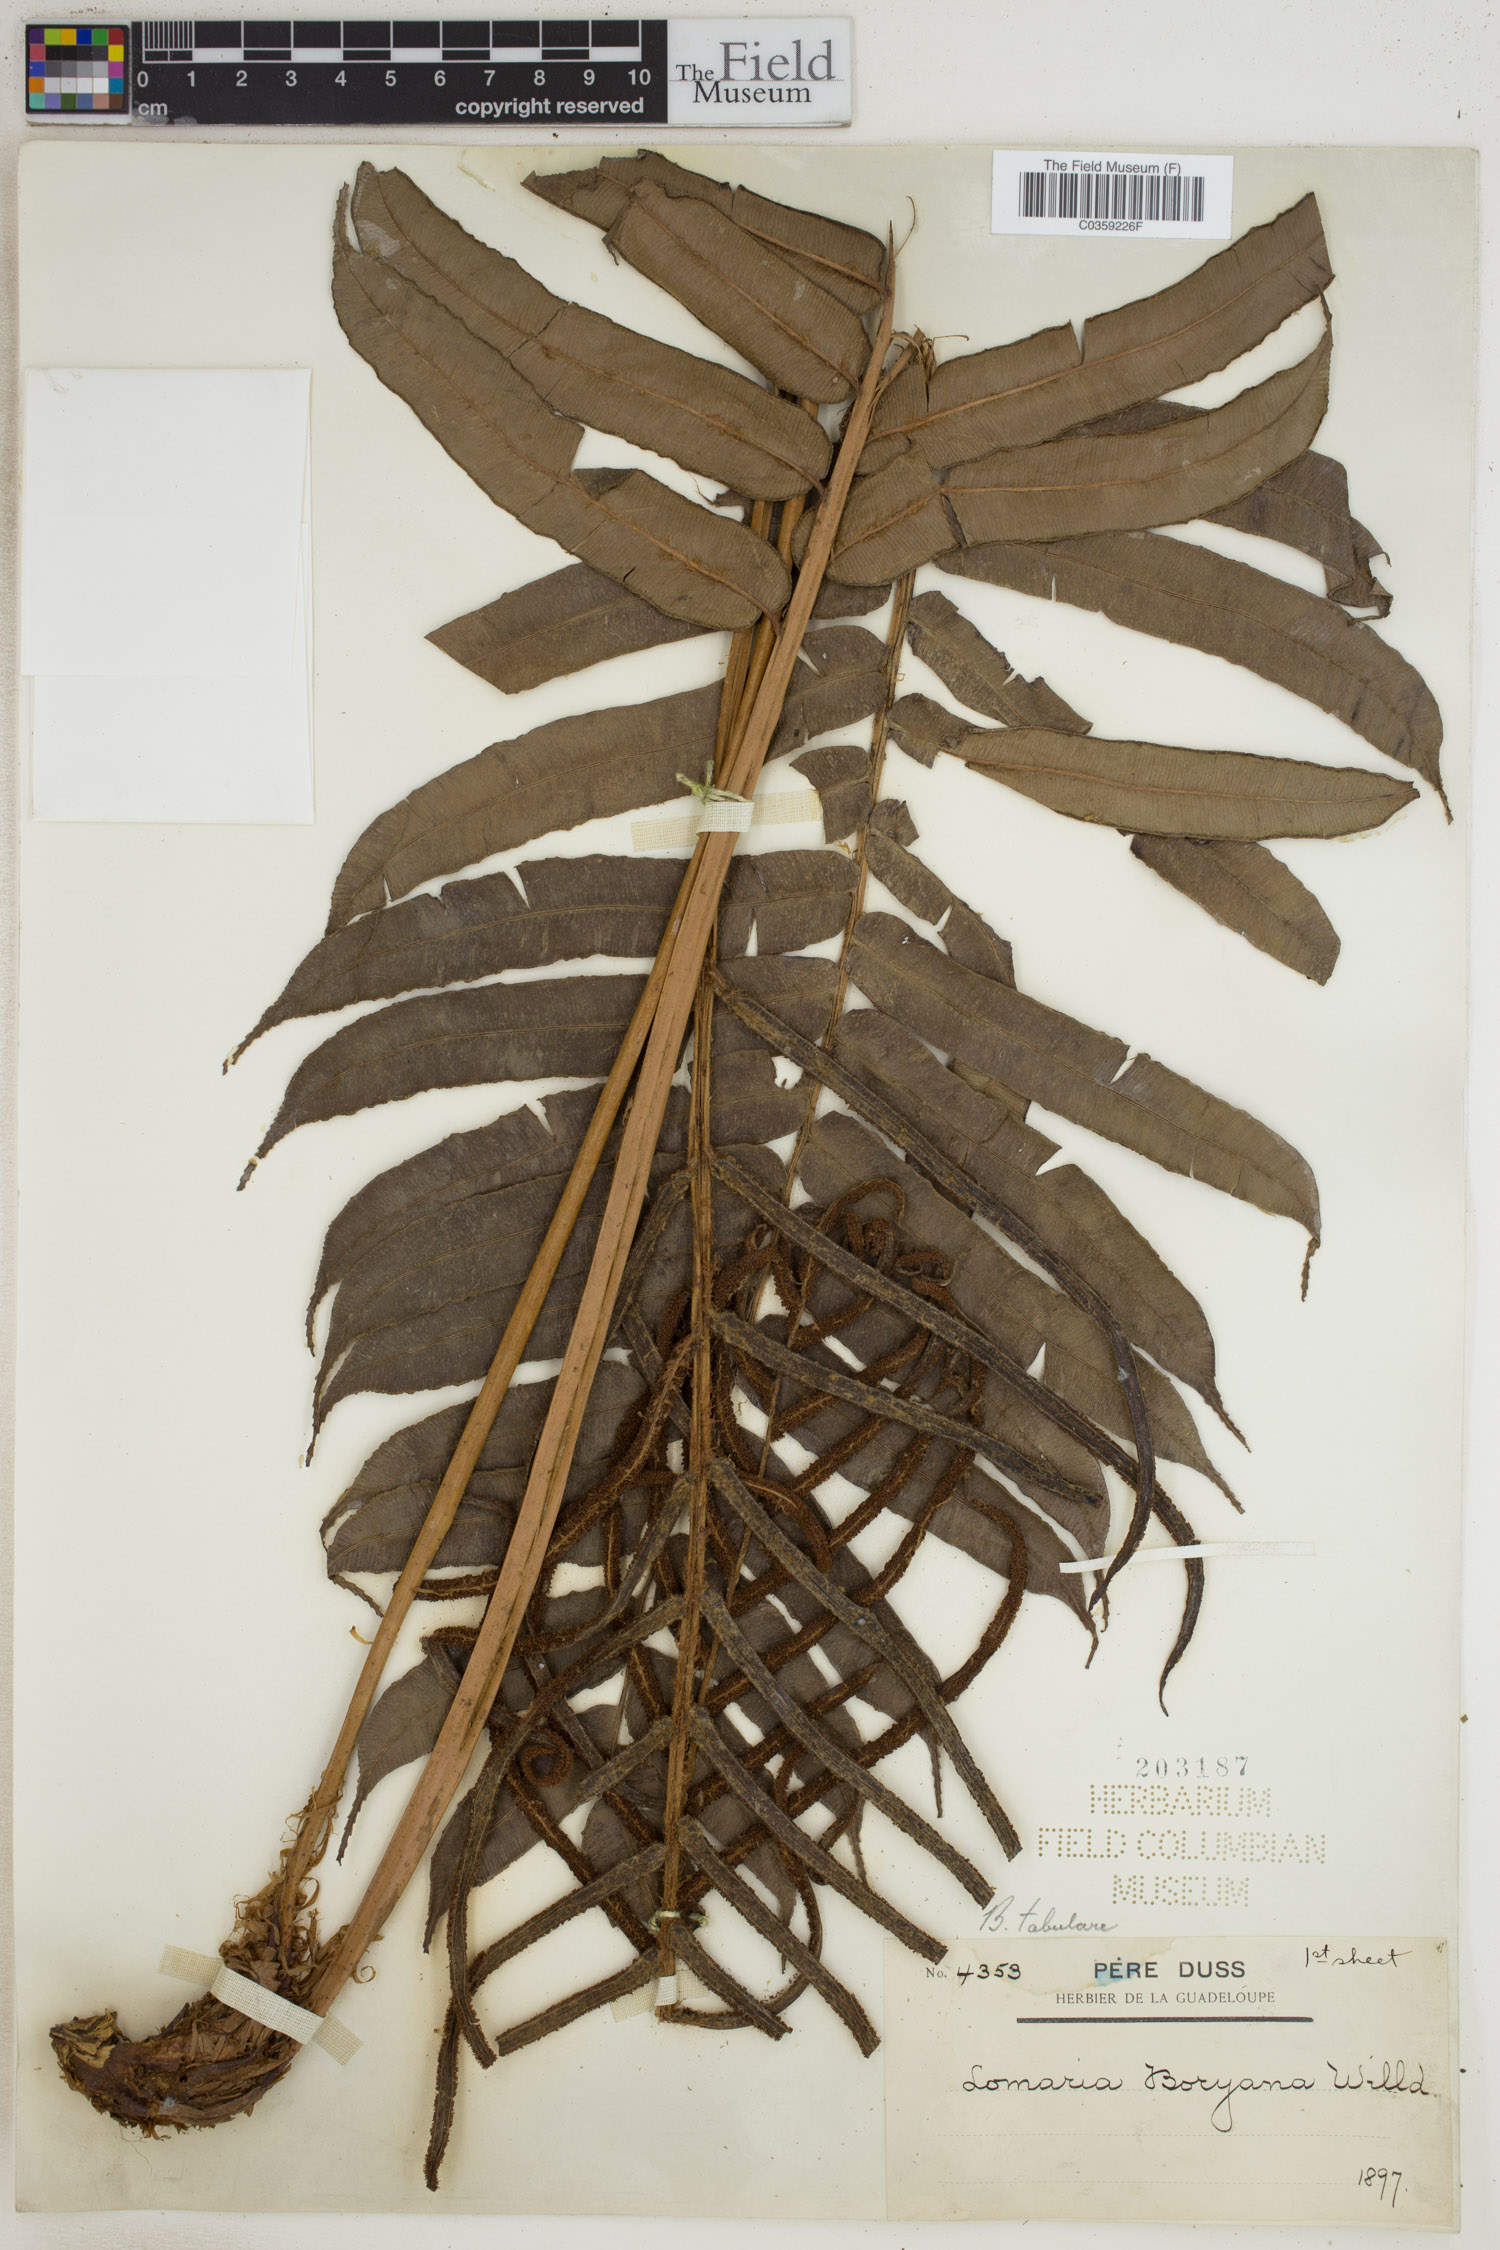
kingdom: Plantae
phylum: Tracheophyta
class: Polypodiopsida
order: Polypodiales
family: Blechnaceae
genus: Lomariocycas
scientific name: Lomariocycas tabularis
